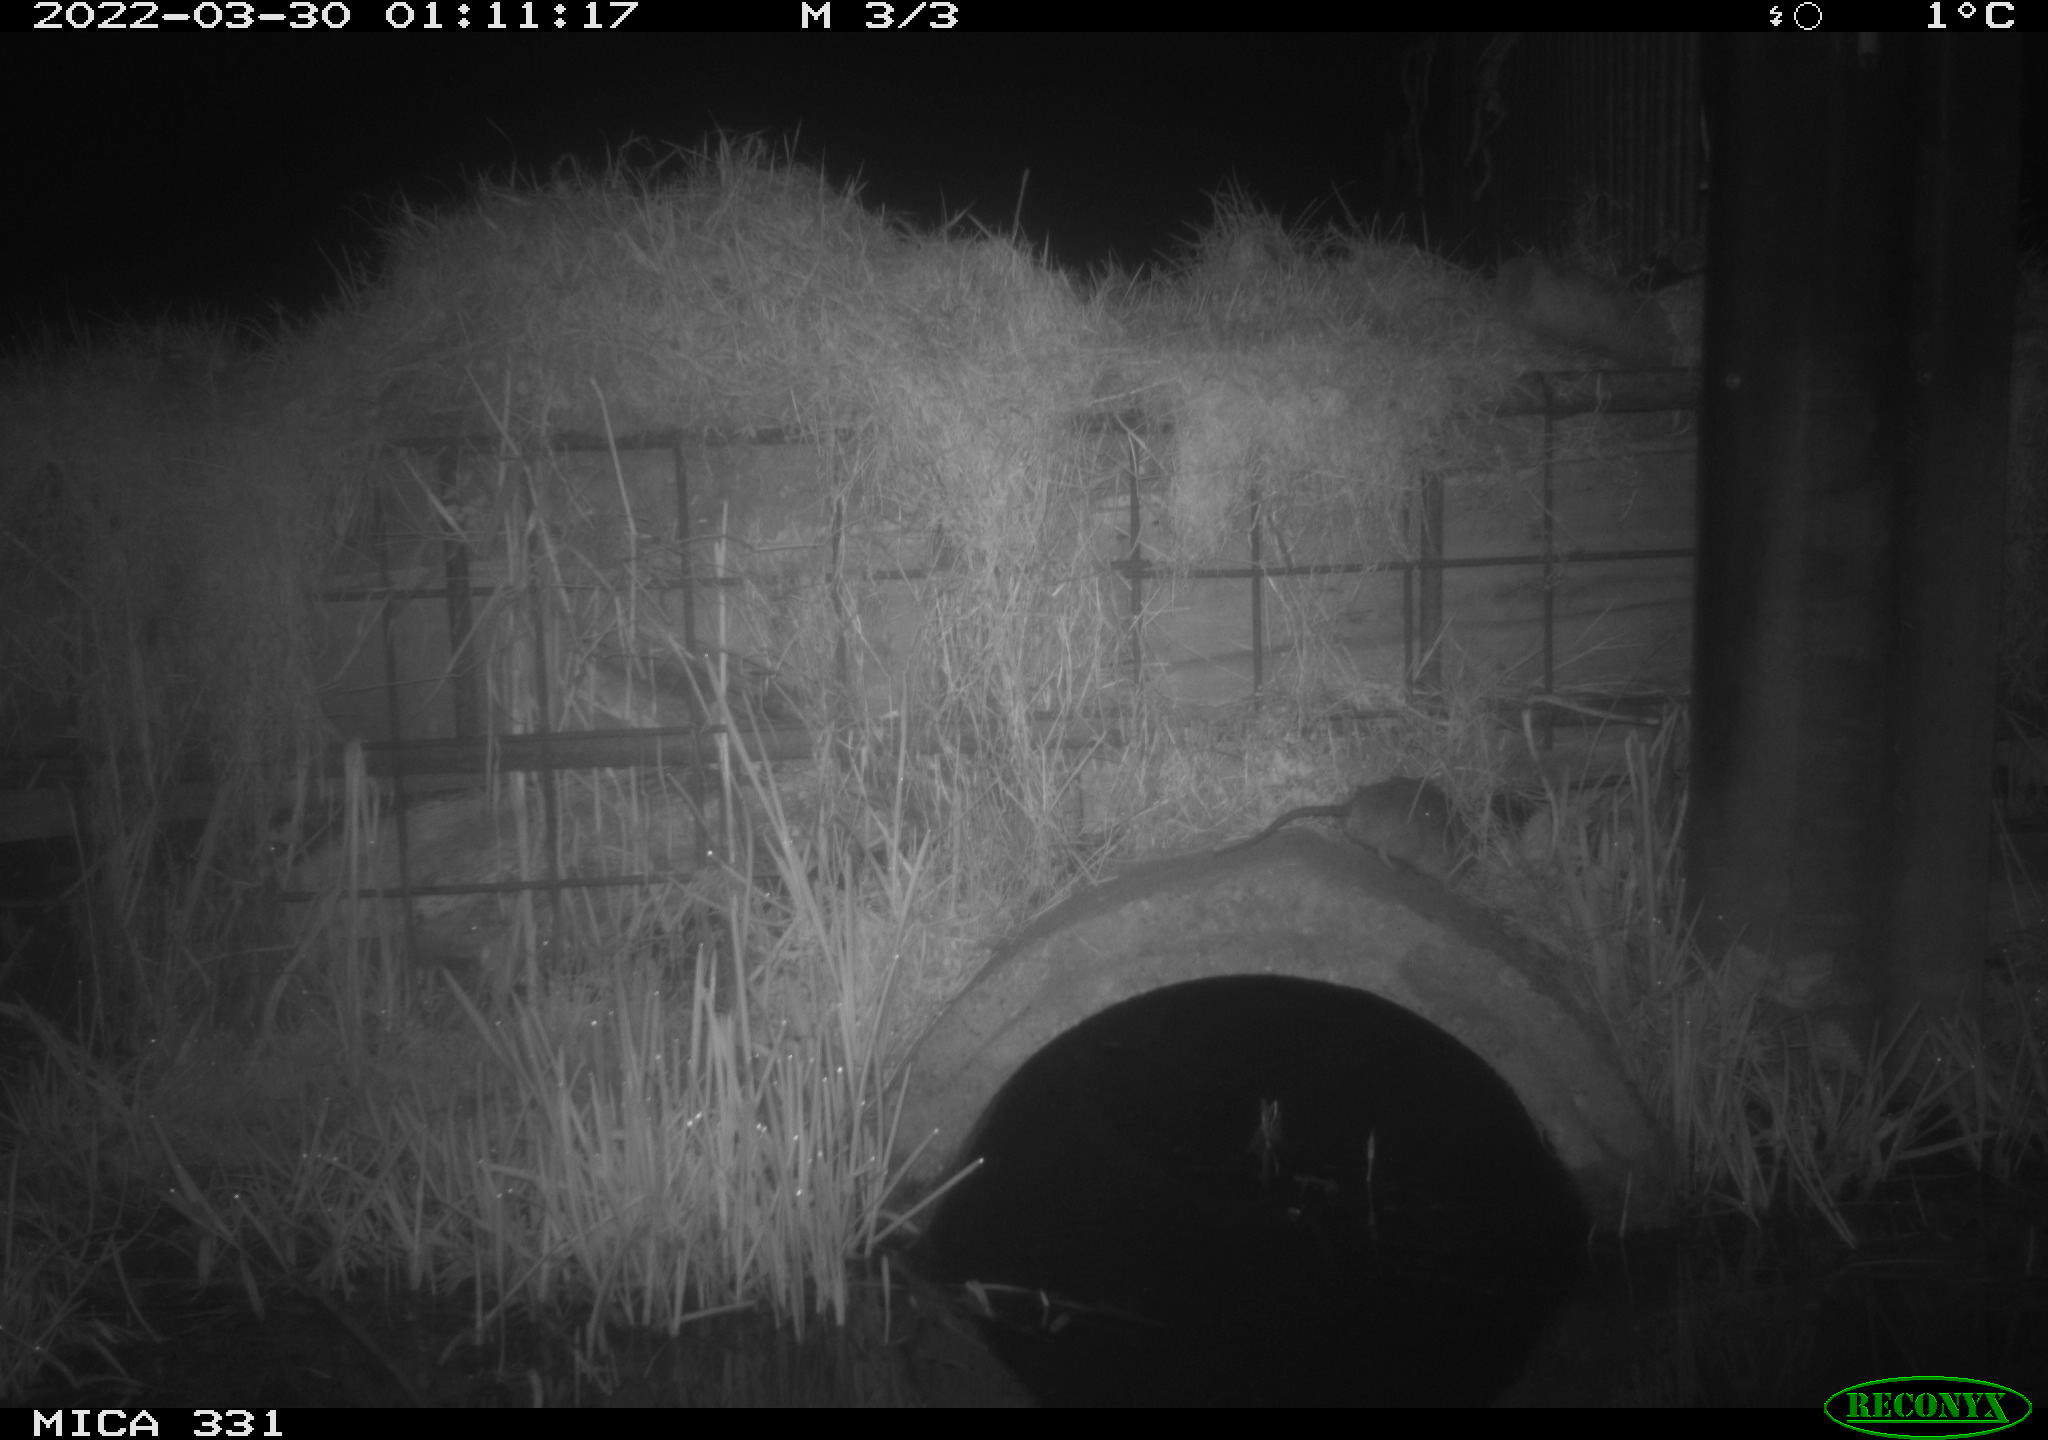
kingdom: Animalia
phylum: Chordata
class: Mammalia
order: Rodentia
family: Muridae
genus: Rattus
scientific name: Rattus norvegicus
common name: Brown rat
